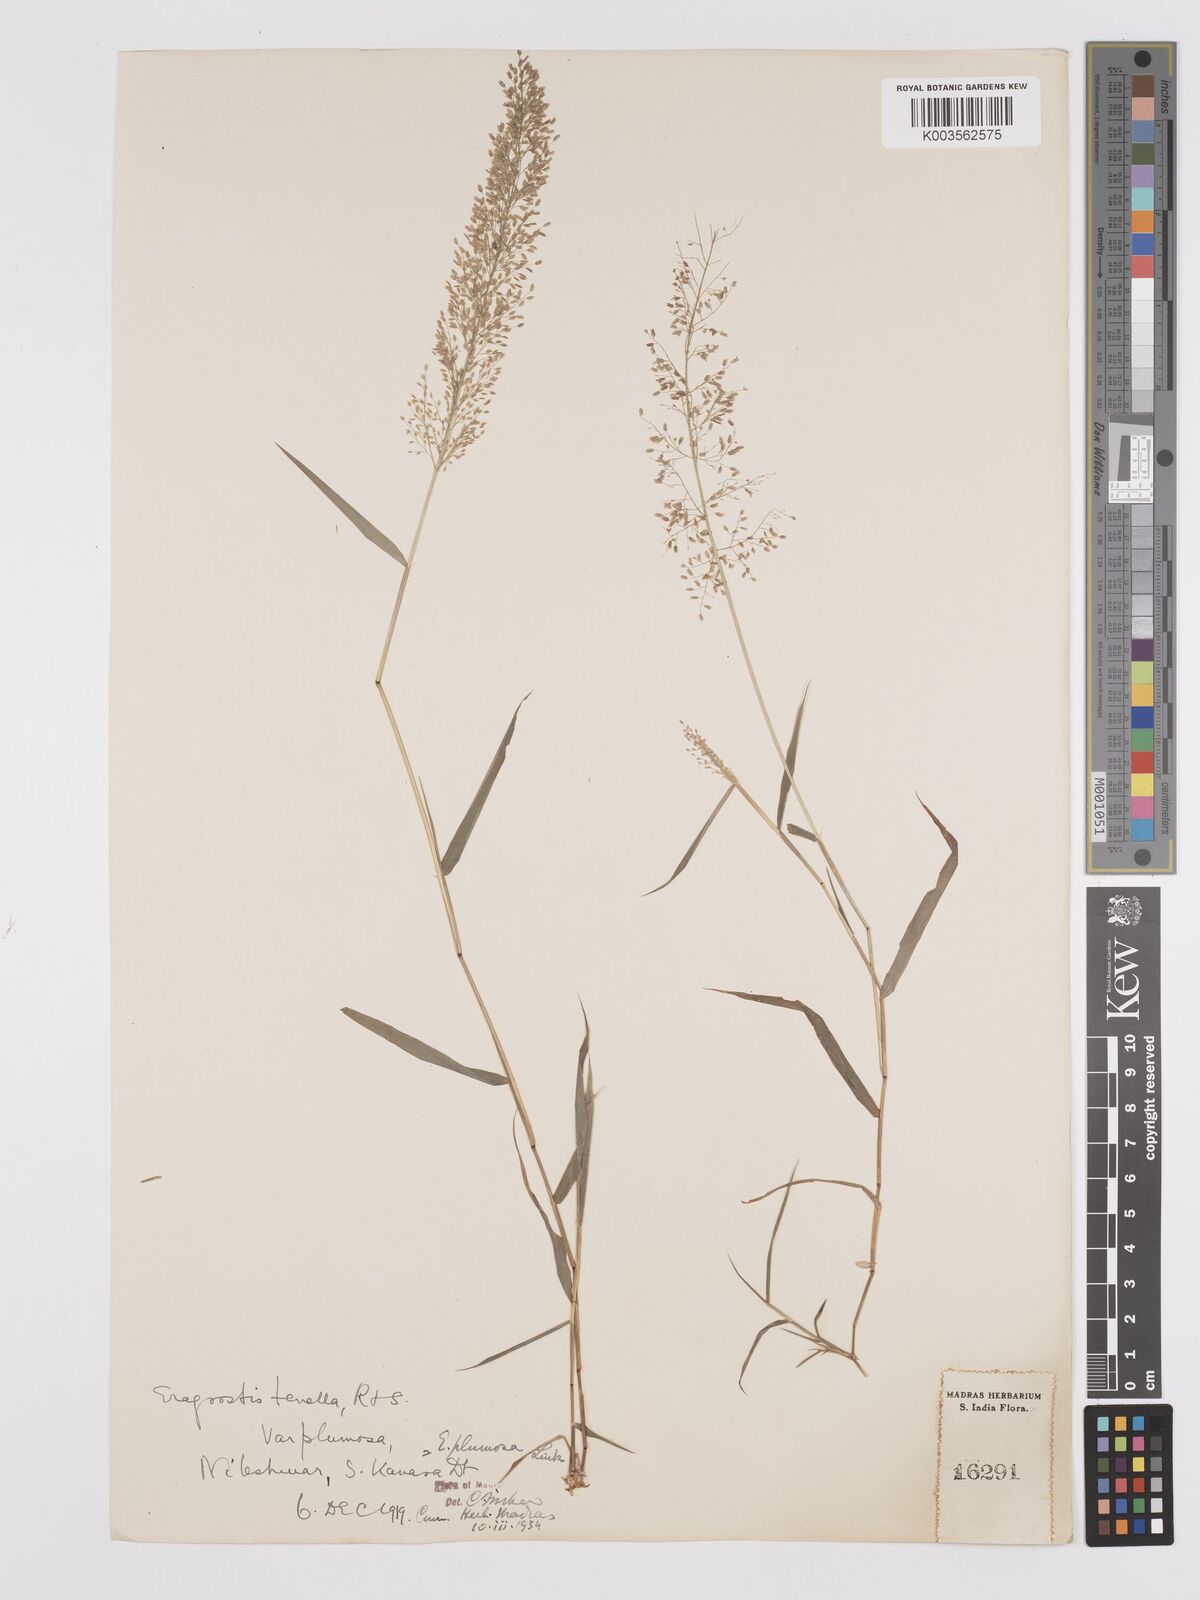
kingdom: Plantae
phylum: Tracheophyta
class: Liliopsida
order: Poales
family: Poaceae
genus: Eragrostis
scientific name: Eragrostis tenella
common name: Japanese lovegrass
